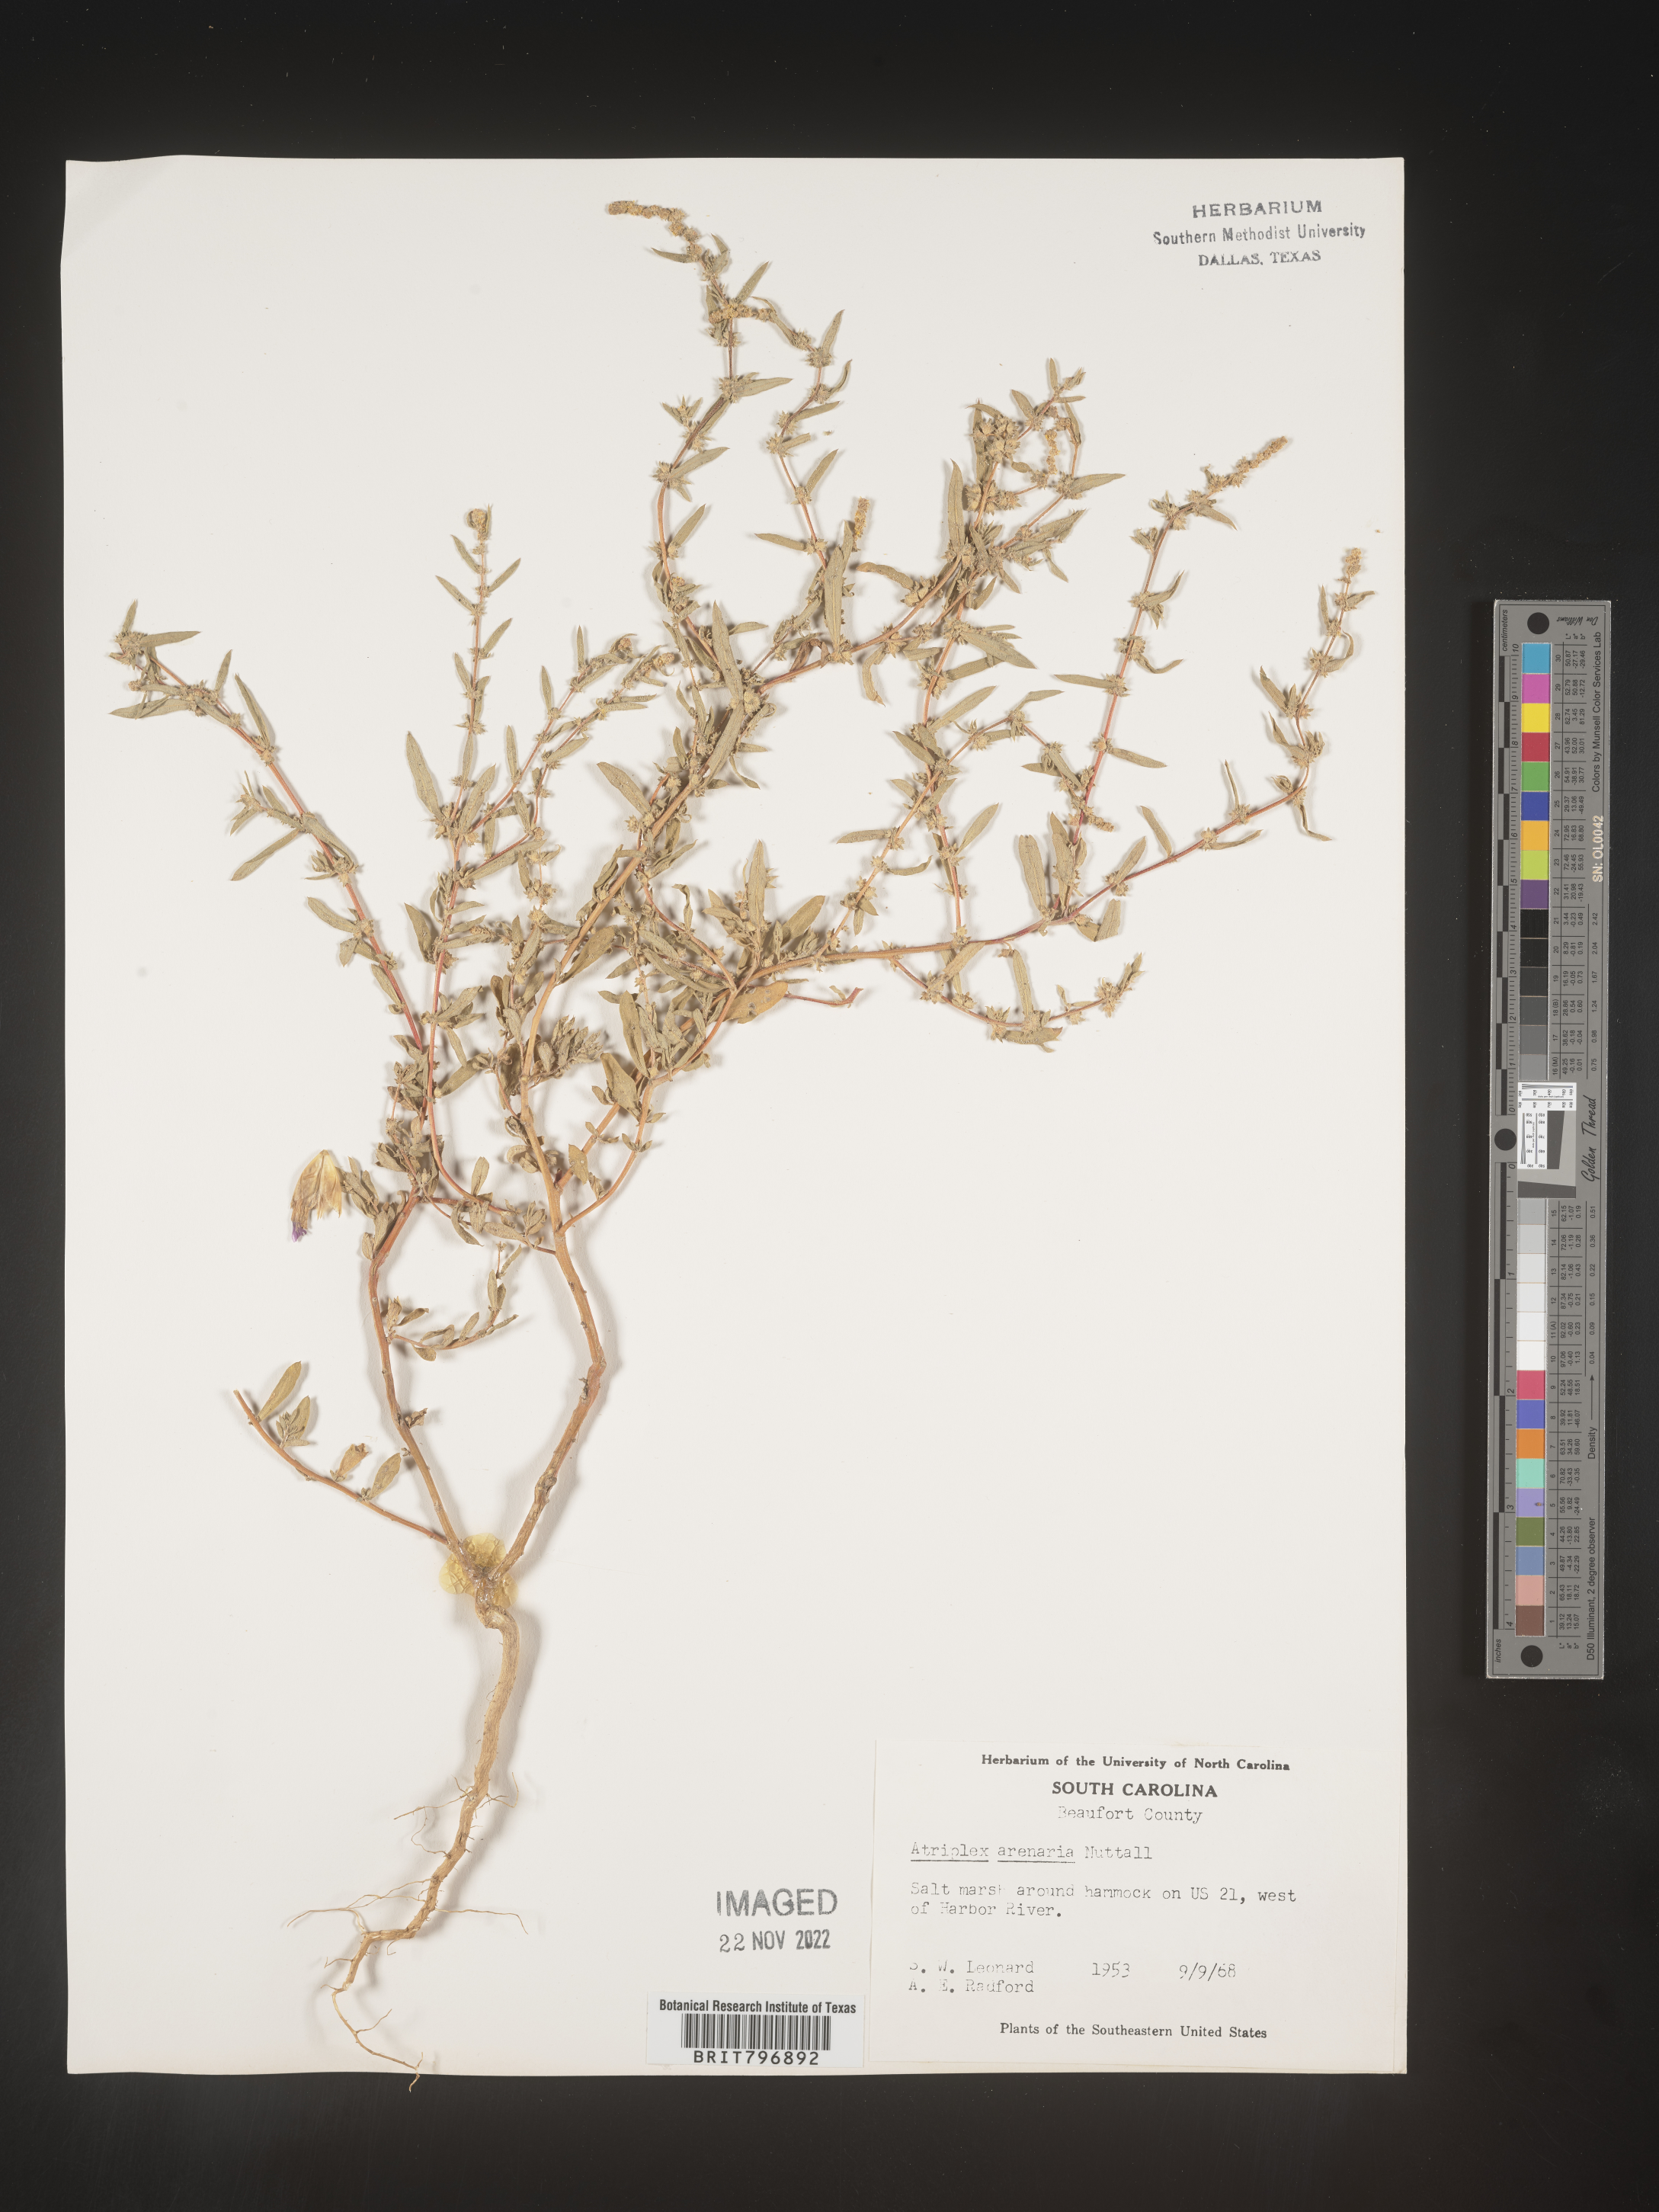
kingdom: Plantae
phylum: Tracheophyta
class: Magnoliopsida
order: Caryophyllales
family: Amaranthaceae
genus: Atriplex
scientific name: Atriplex mucronata
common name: Quelite
